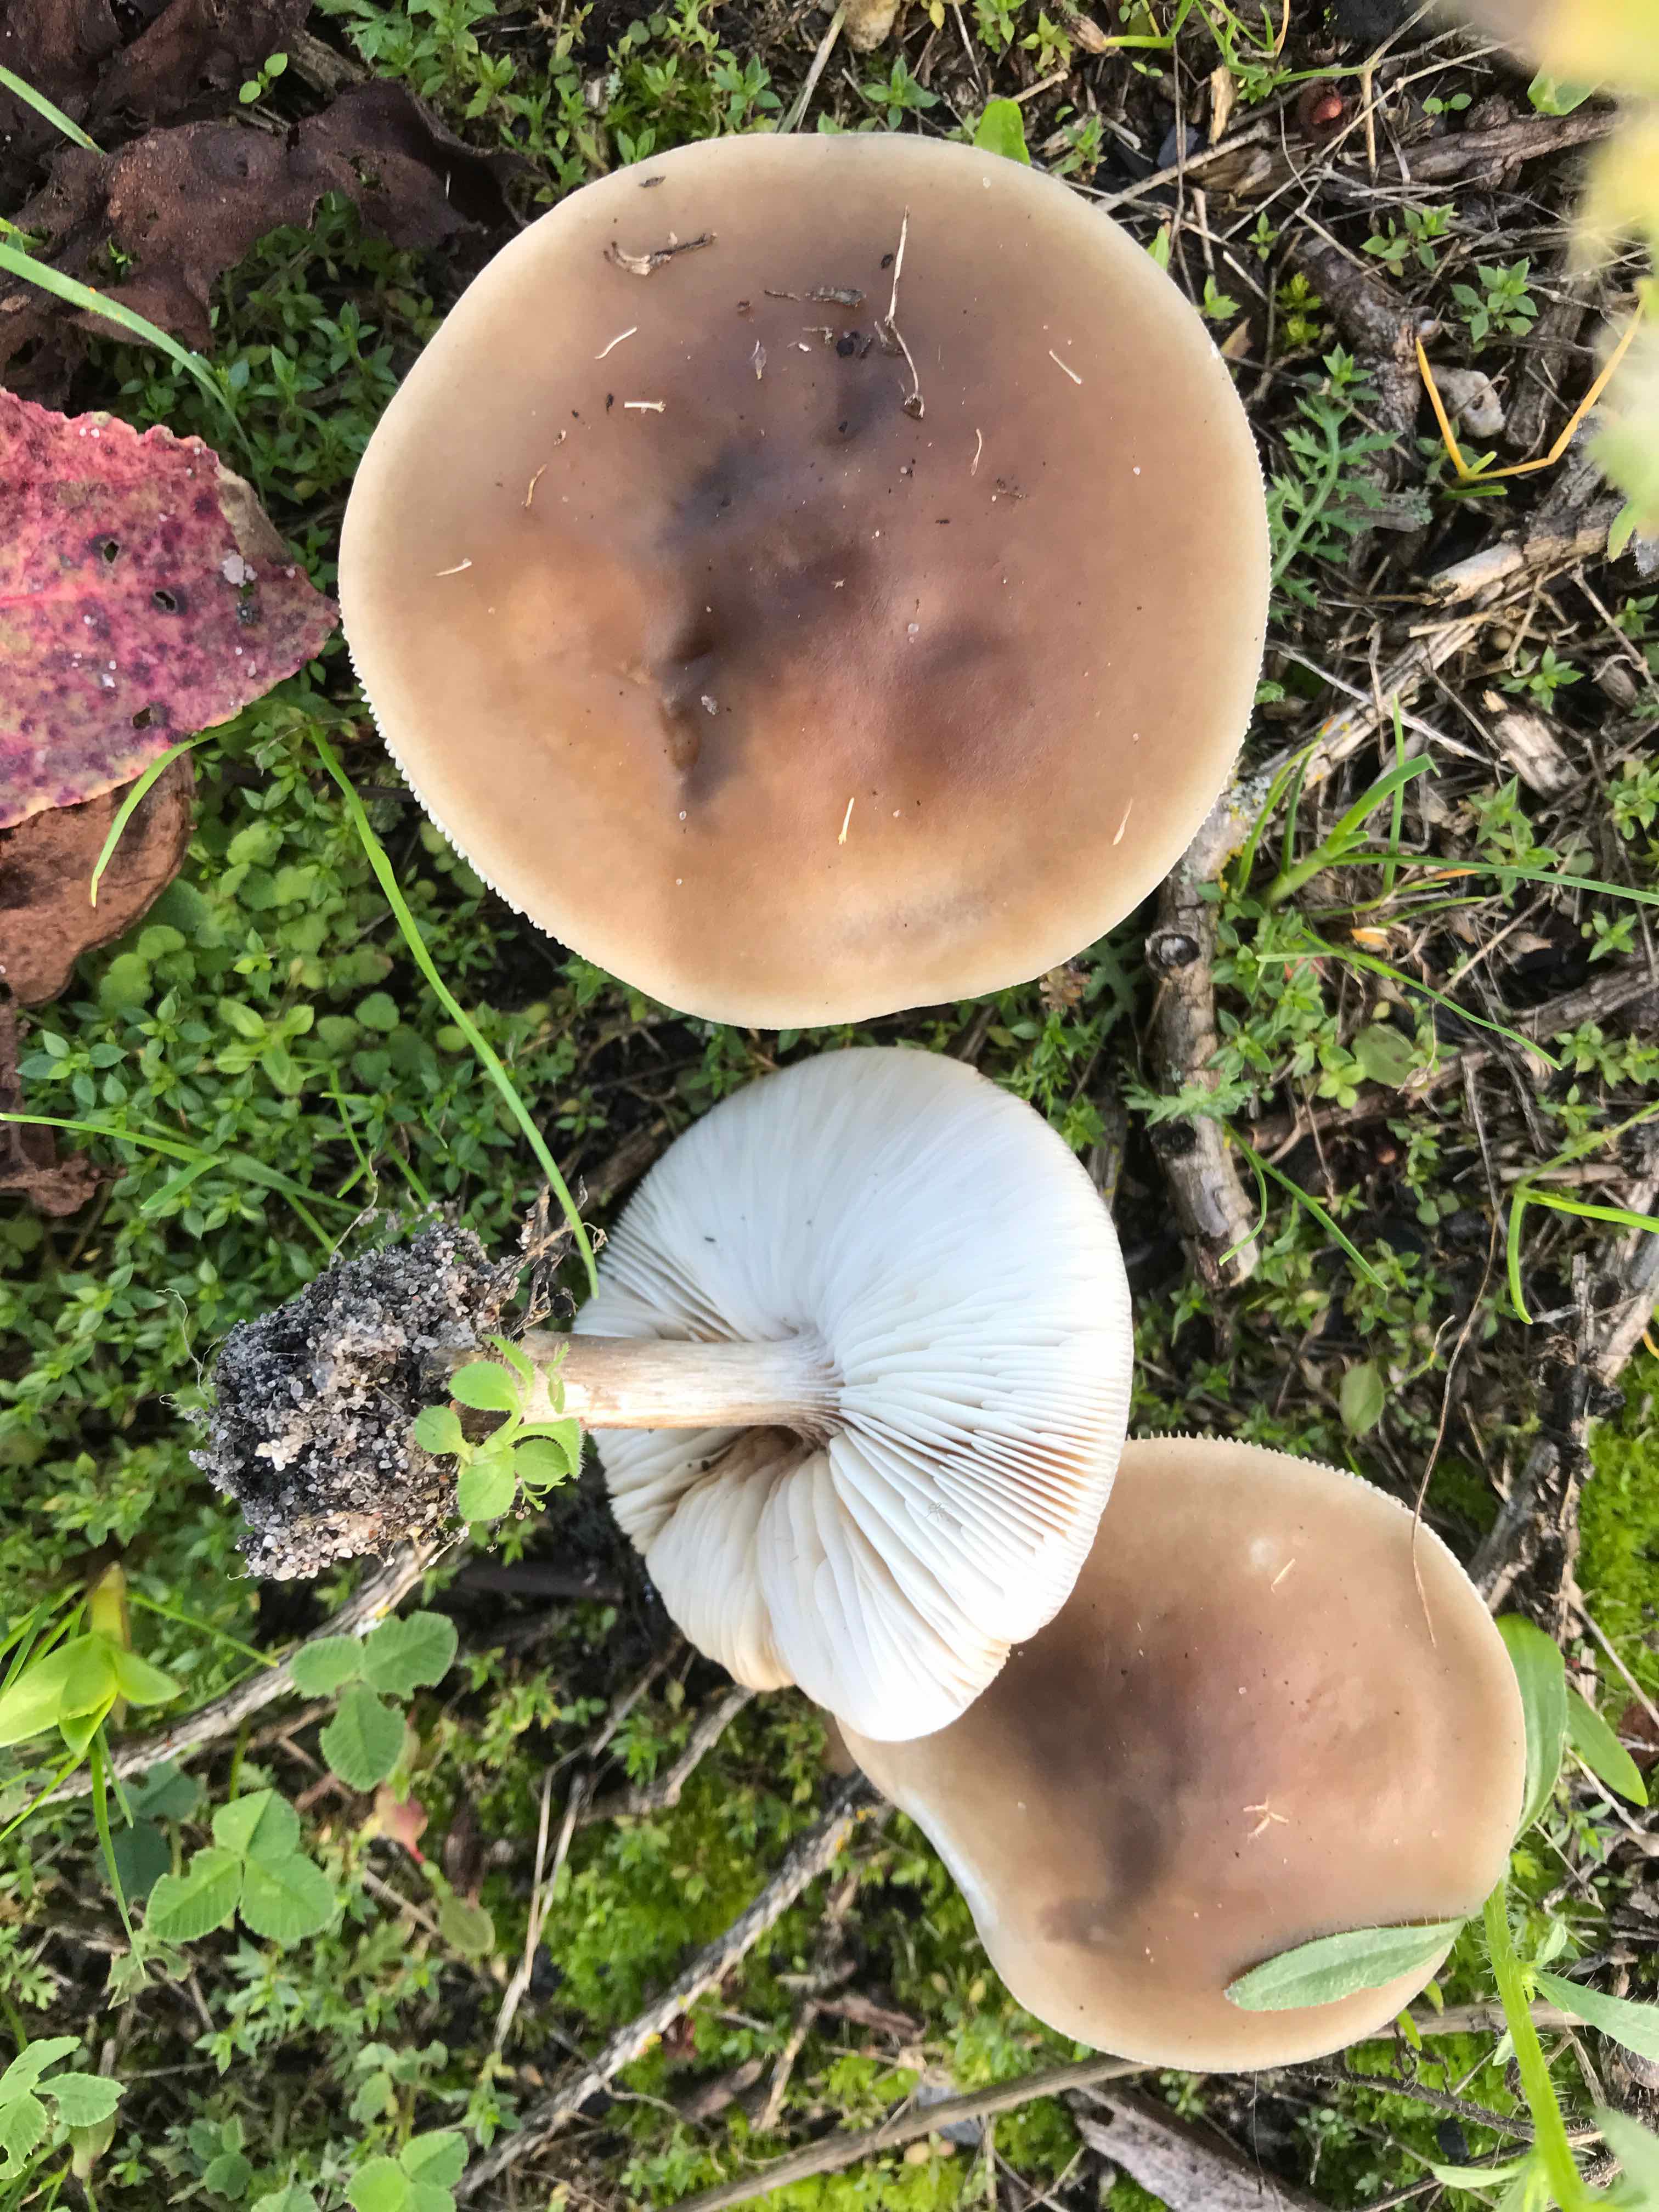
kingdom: Fungi
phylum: Basidiomycota
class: Agaricomycetes
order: Agaricales
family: Tricholomataceae
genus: Melanoleuca
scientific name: Melanoleuca
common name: munkehat
